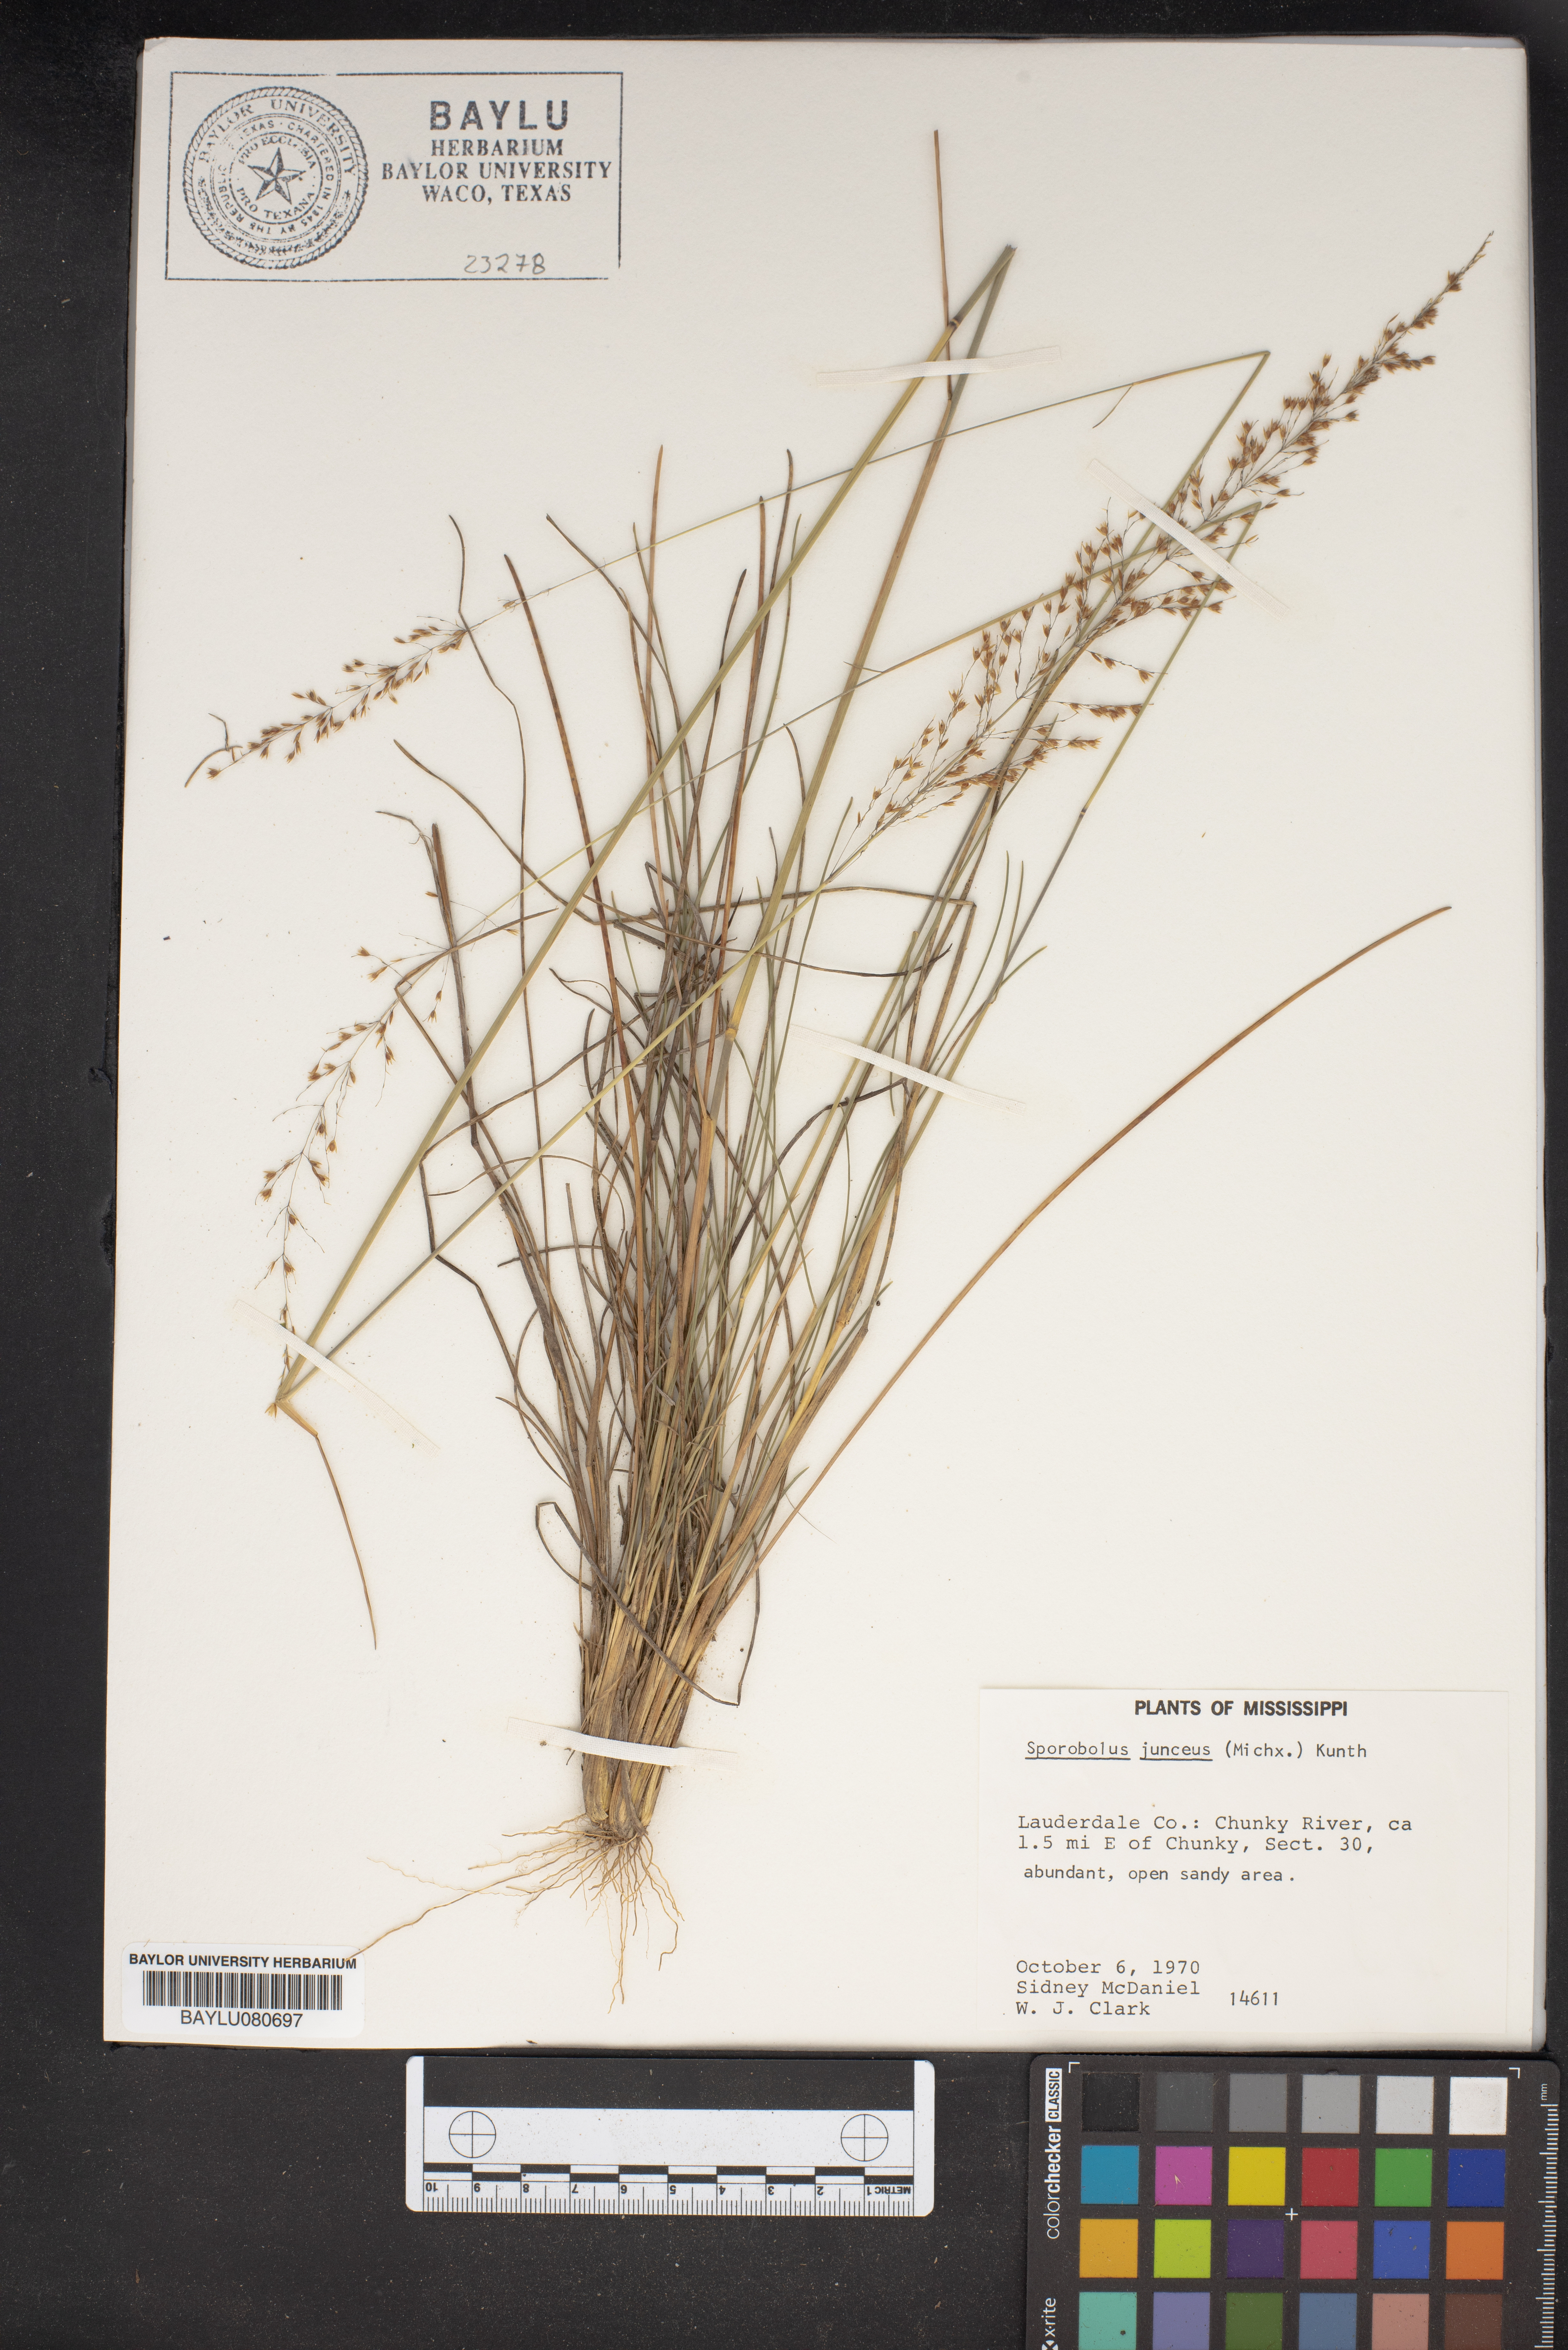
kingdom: Plantae
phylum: Tracheophyta
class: Liliopsida
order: Poales
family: Poaceae
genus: Sporobolus
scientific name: Sporobolus junceus
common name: Lizard grass
